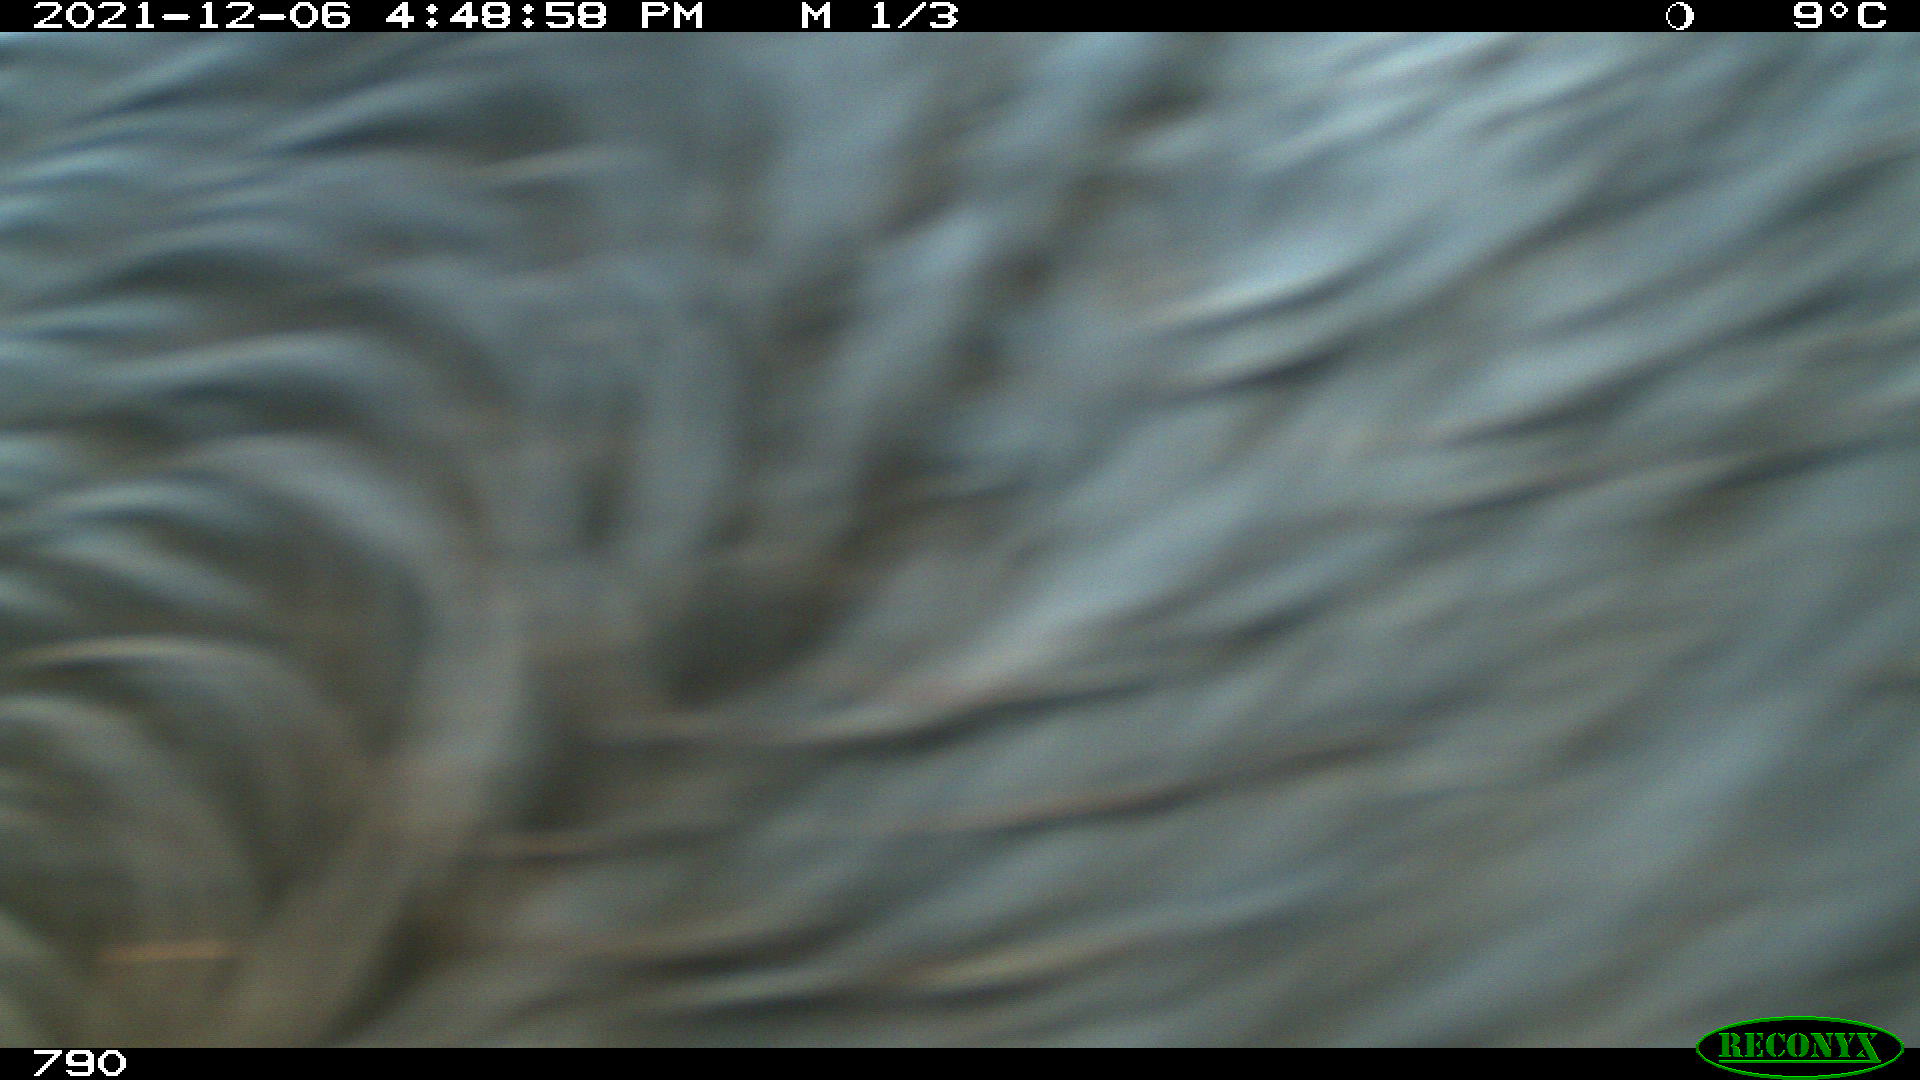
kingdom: Animalia
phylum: Chordata
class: Mammalia
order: Perissodactyla
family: Equidae
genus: Equus
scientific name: Equus caballus
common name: Horse
